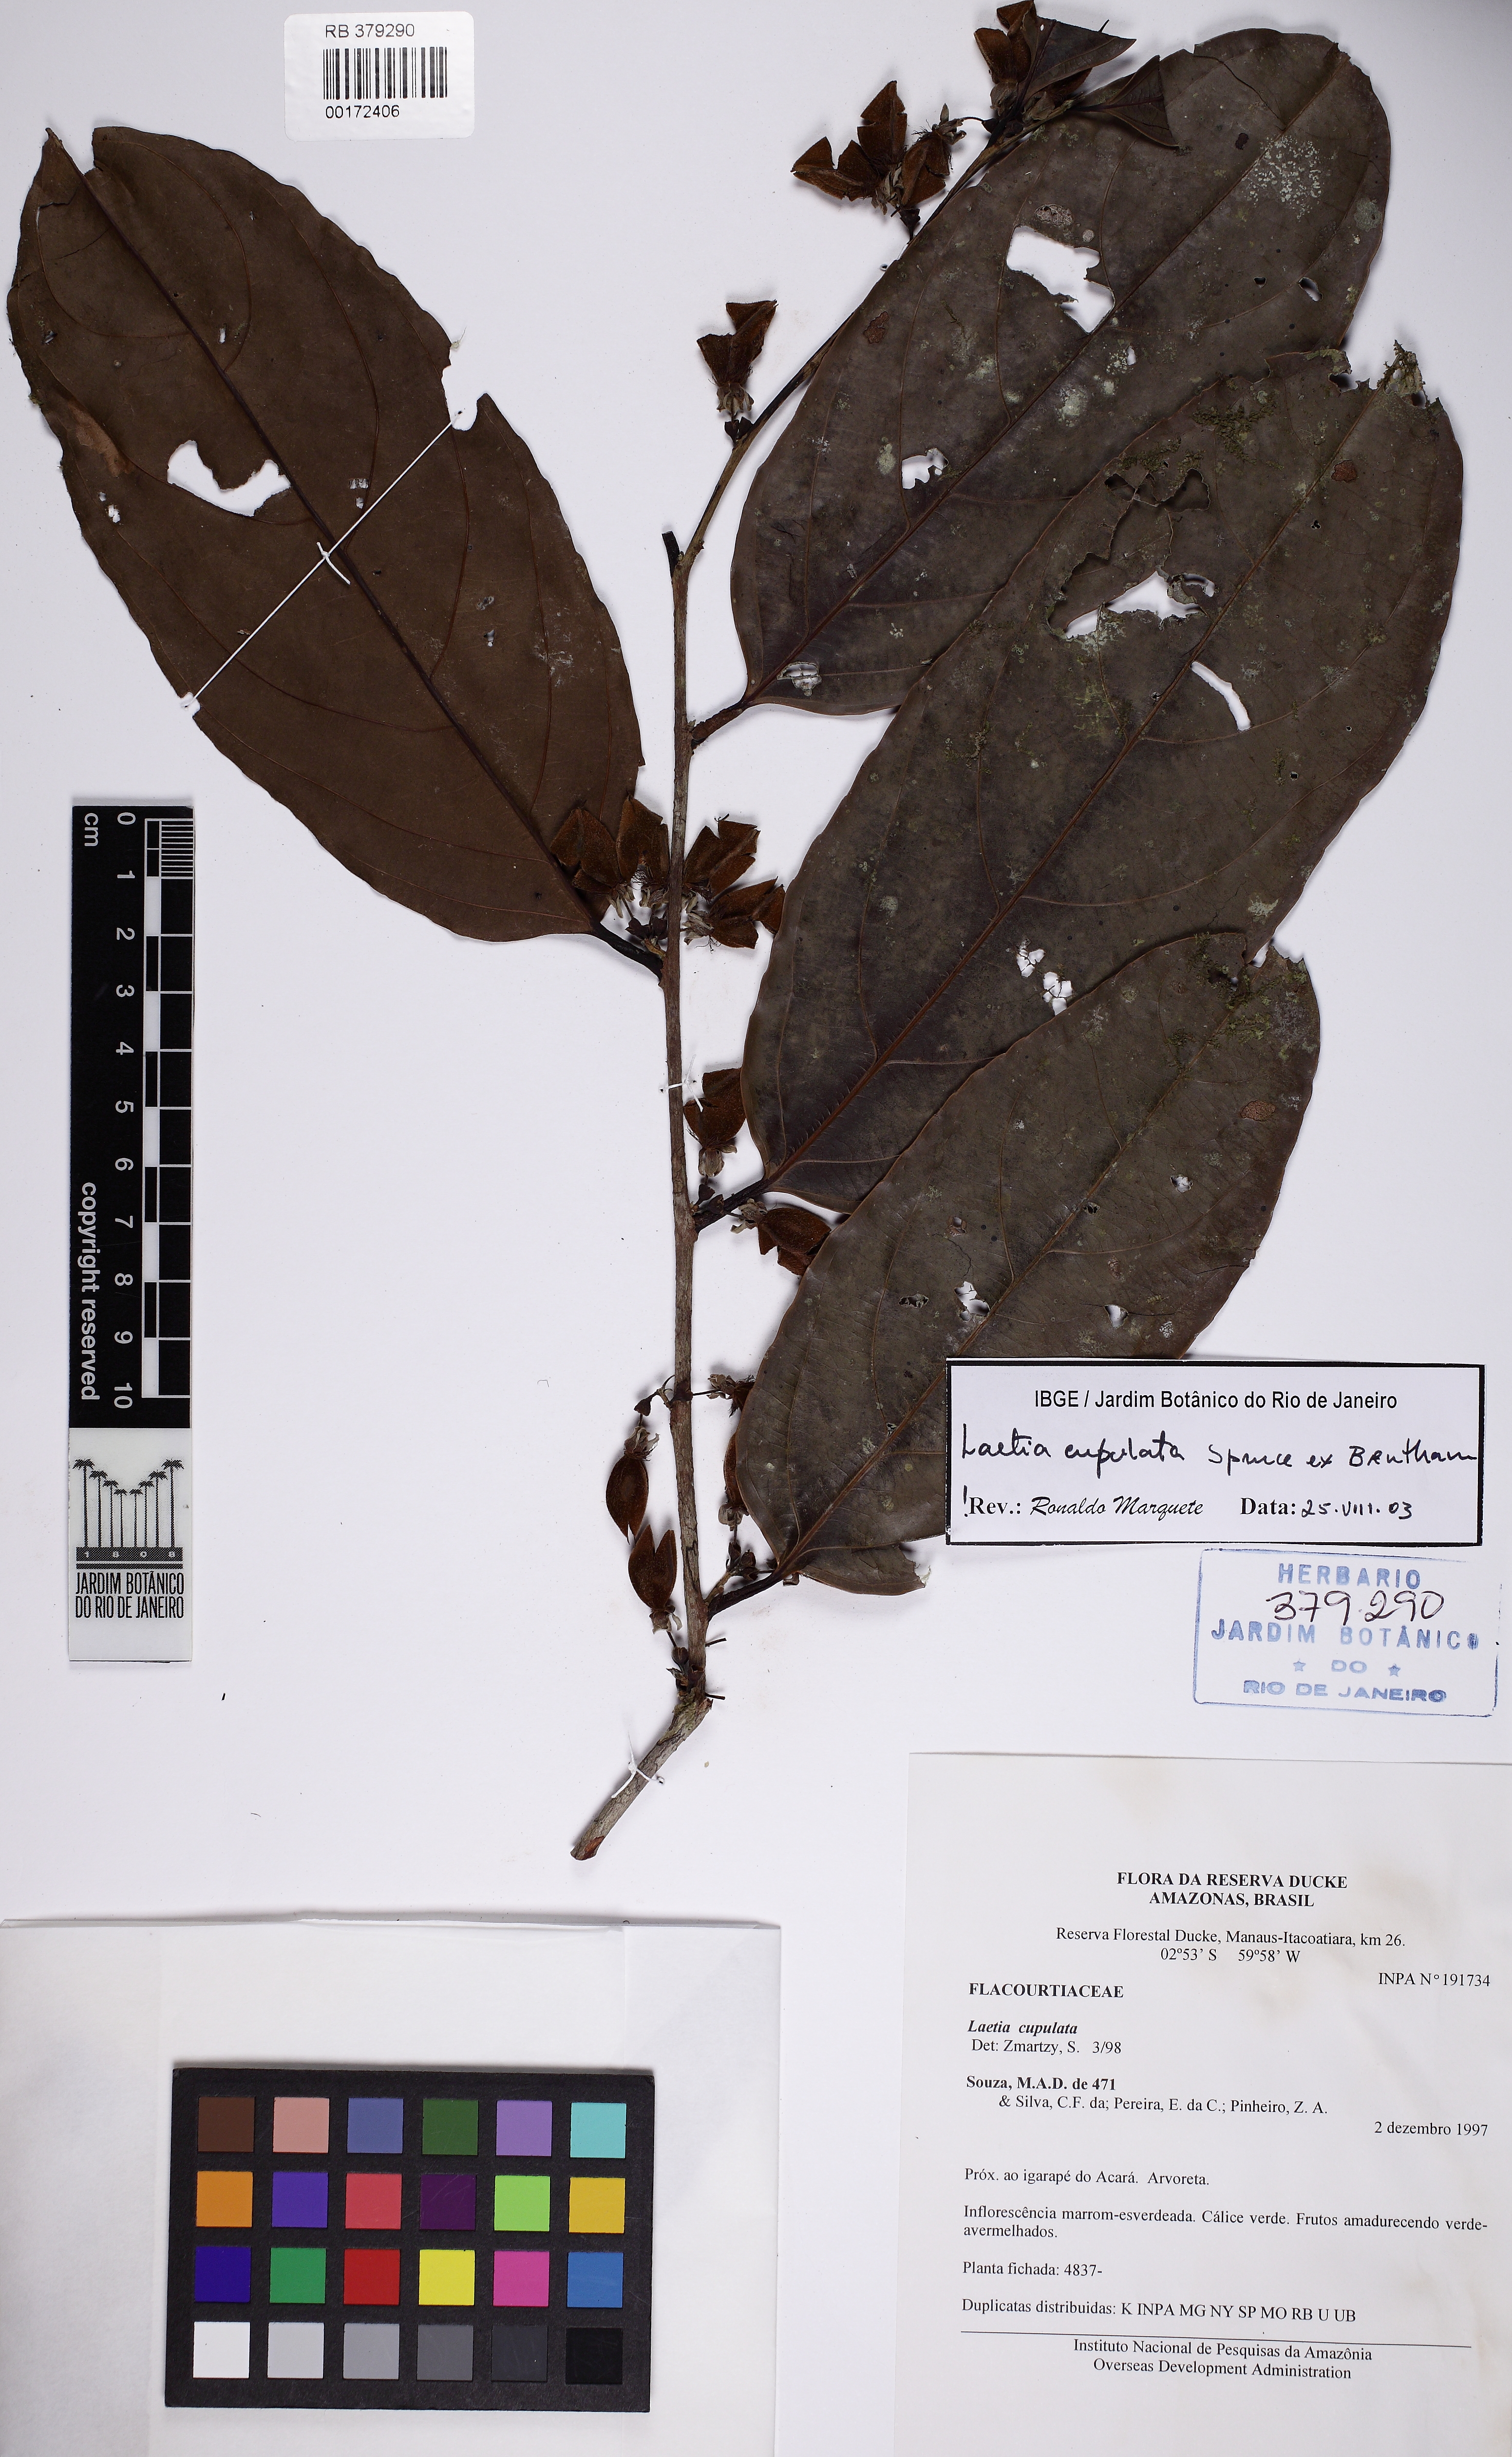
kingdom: Plantae
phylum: Tracheophyta
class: Magnoliopsida
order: Malpighiales
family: Salicaceae
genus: Irenodendron
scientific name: Irenodendron cupulatum
